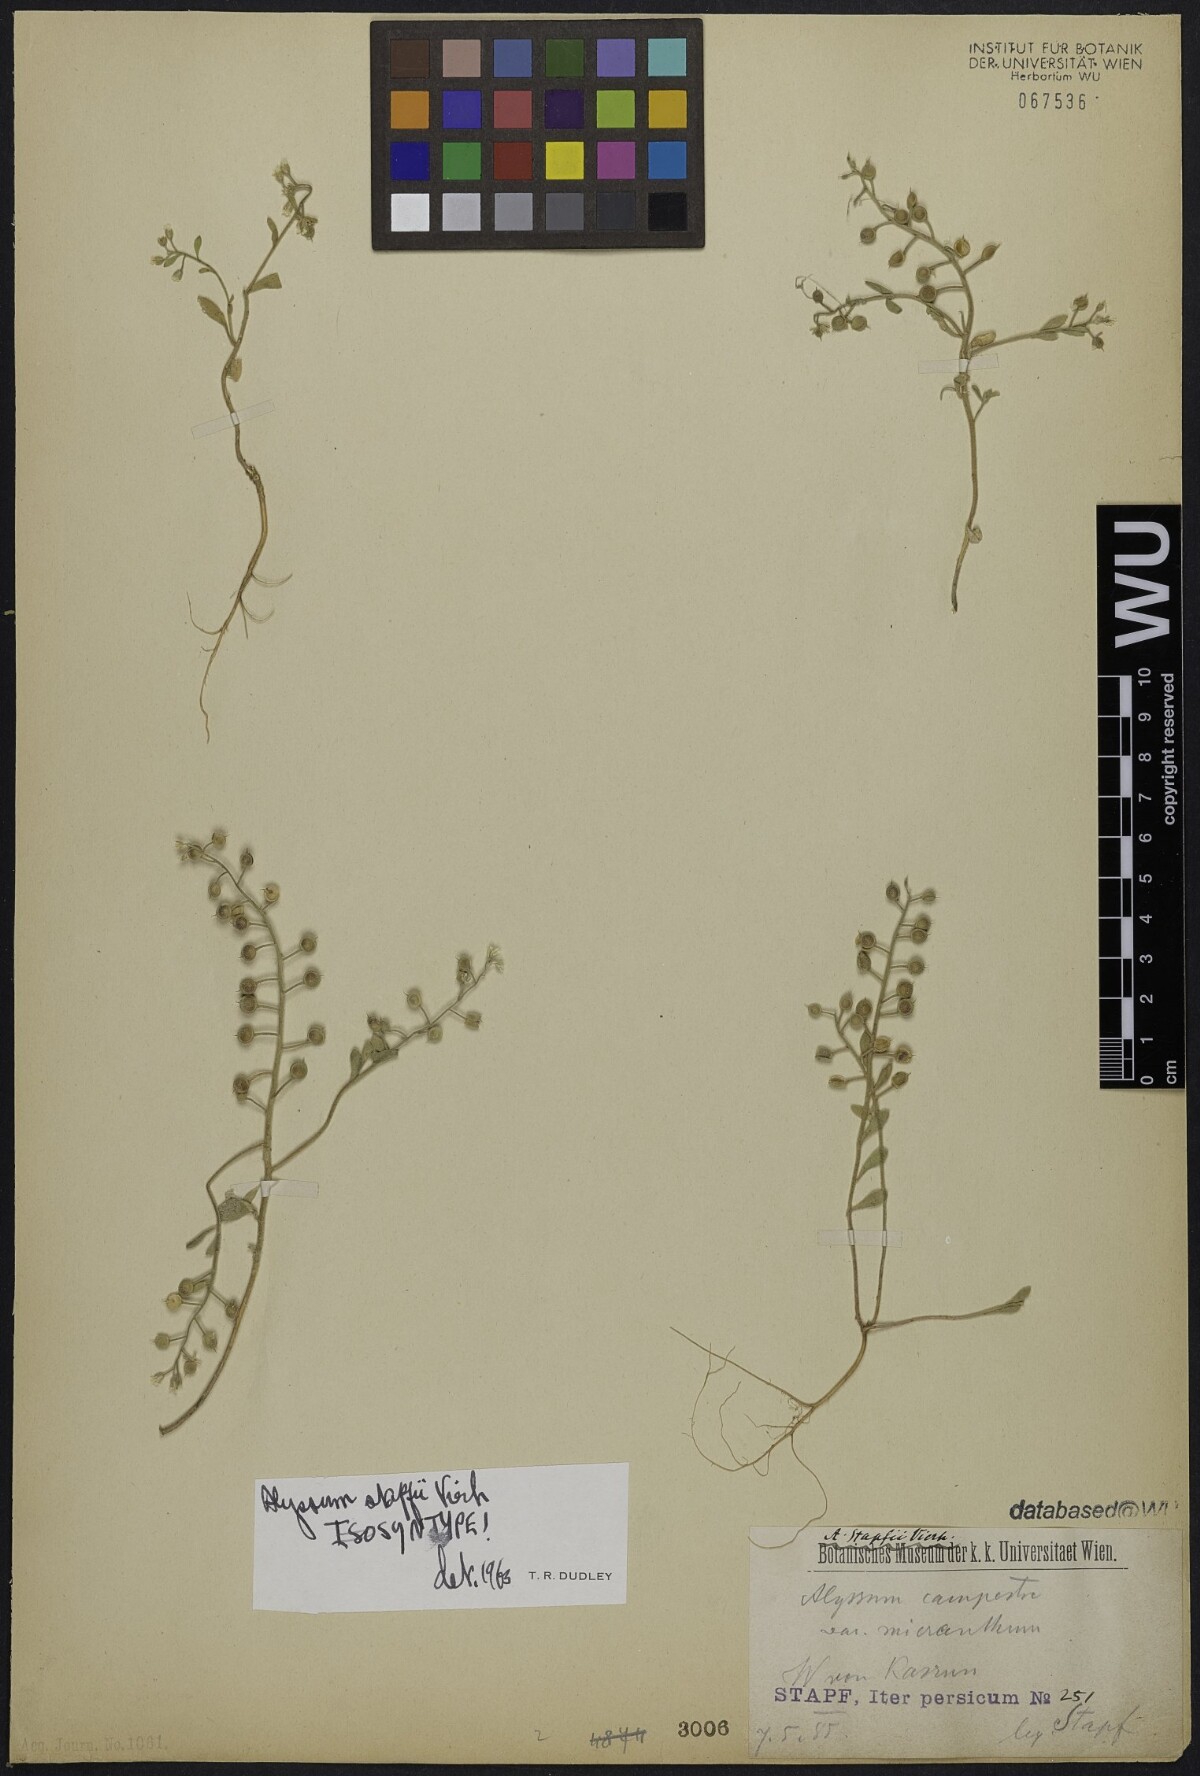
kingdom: Plantae
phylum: Tracheophyta
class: Magnoliopsida
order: Brassicales
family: Brassicaceae
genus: Alyssum
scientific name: Alyssum stapfii
